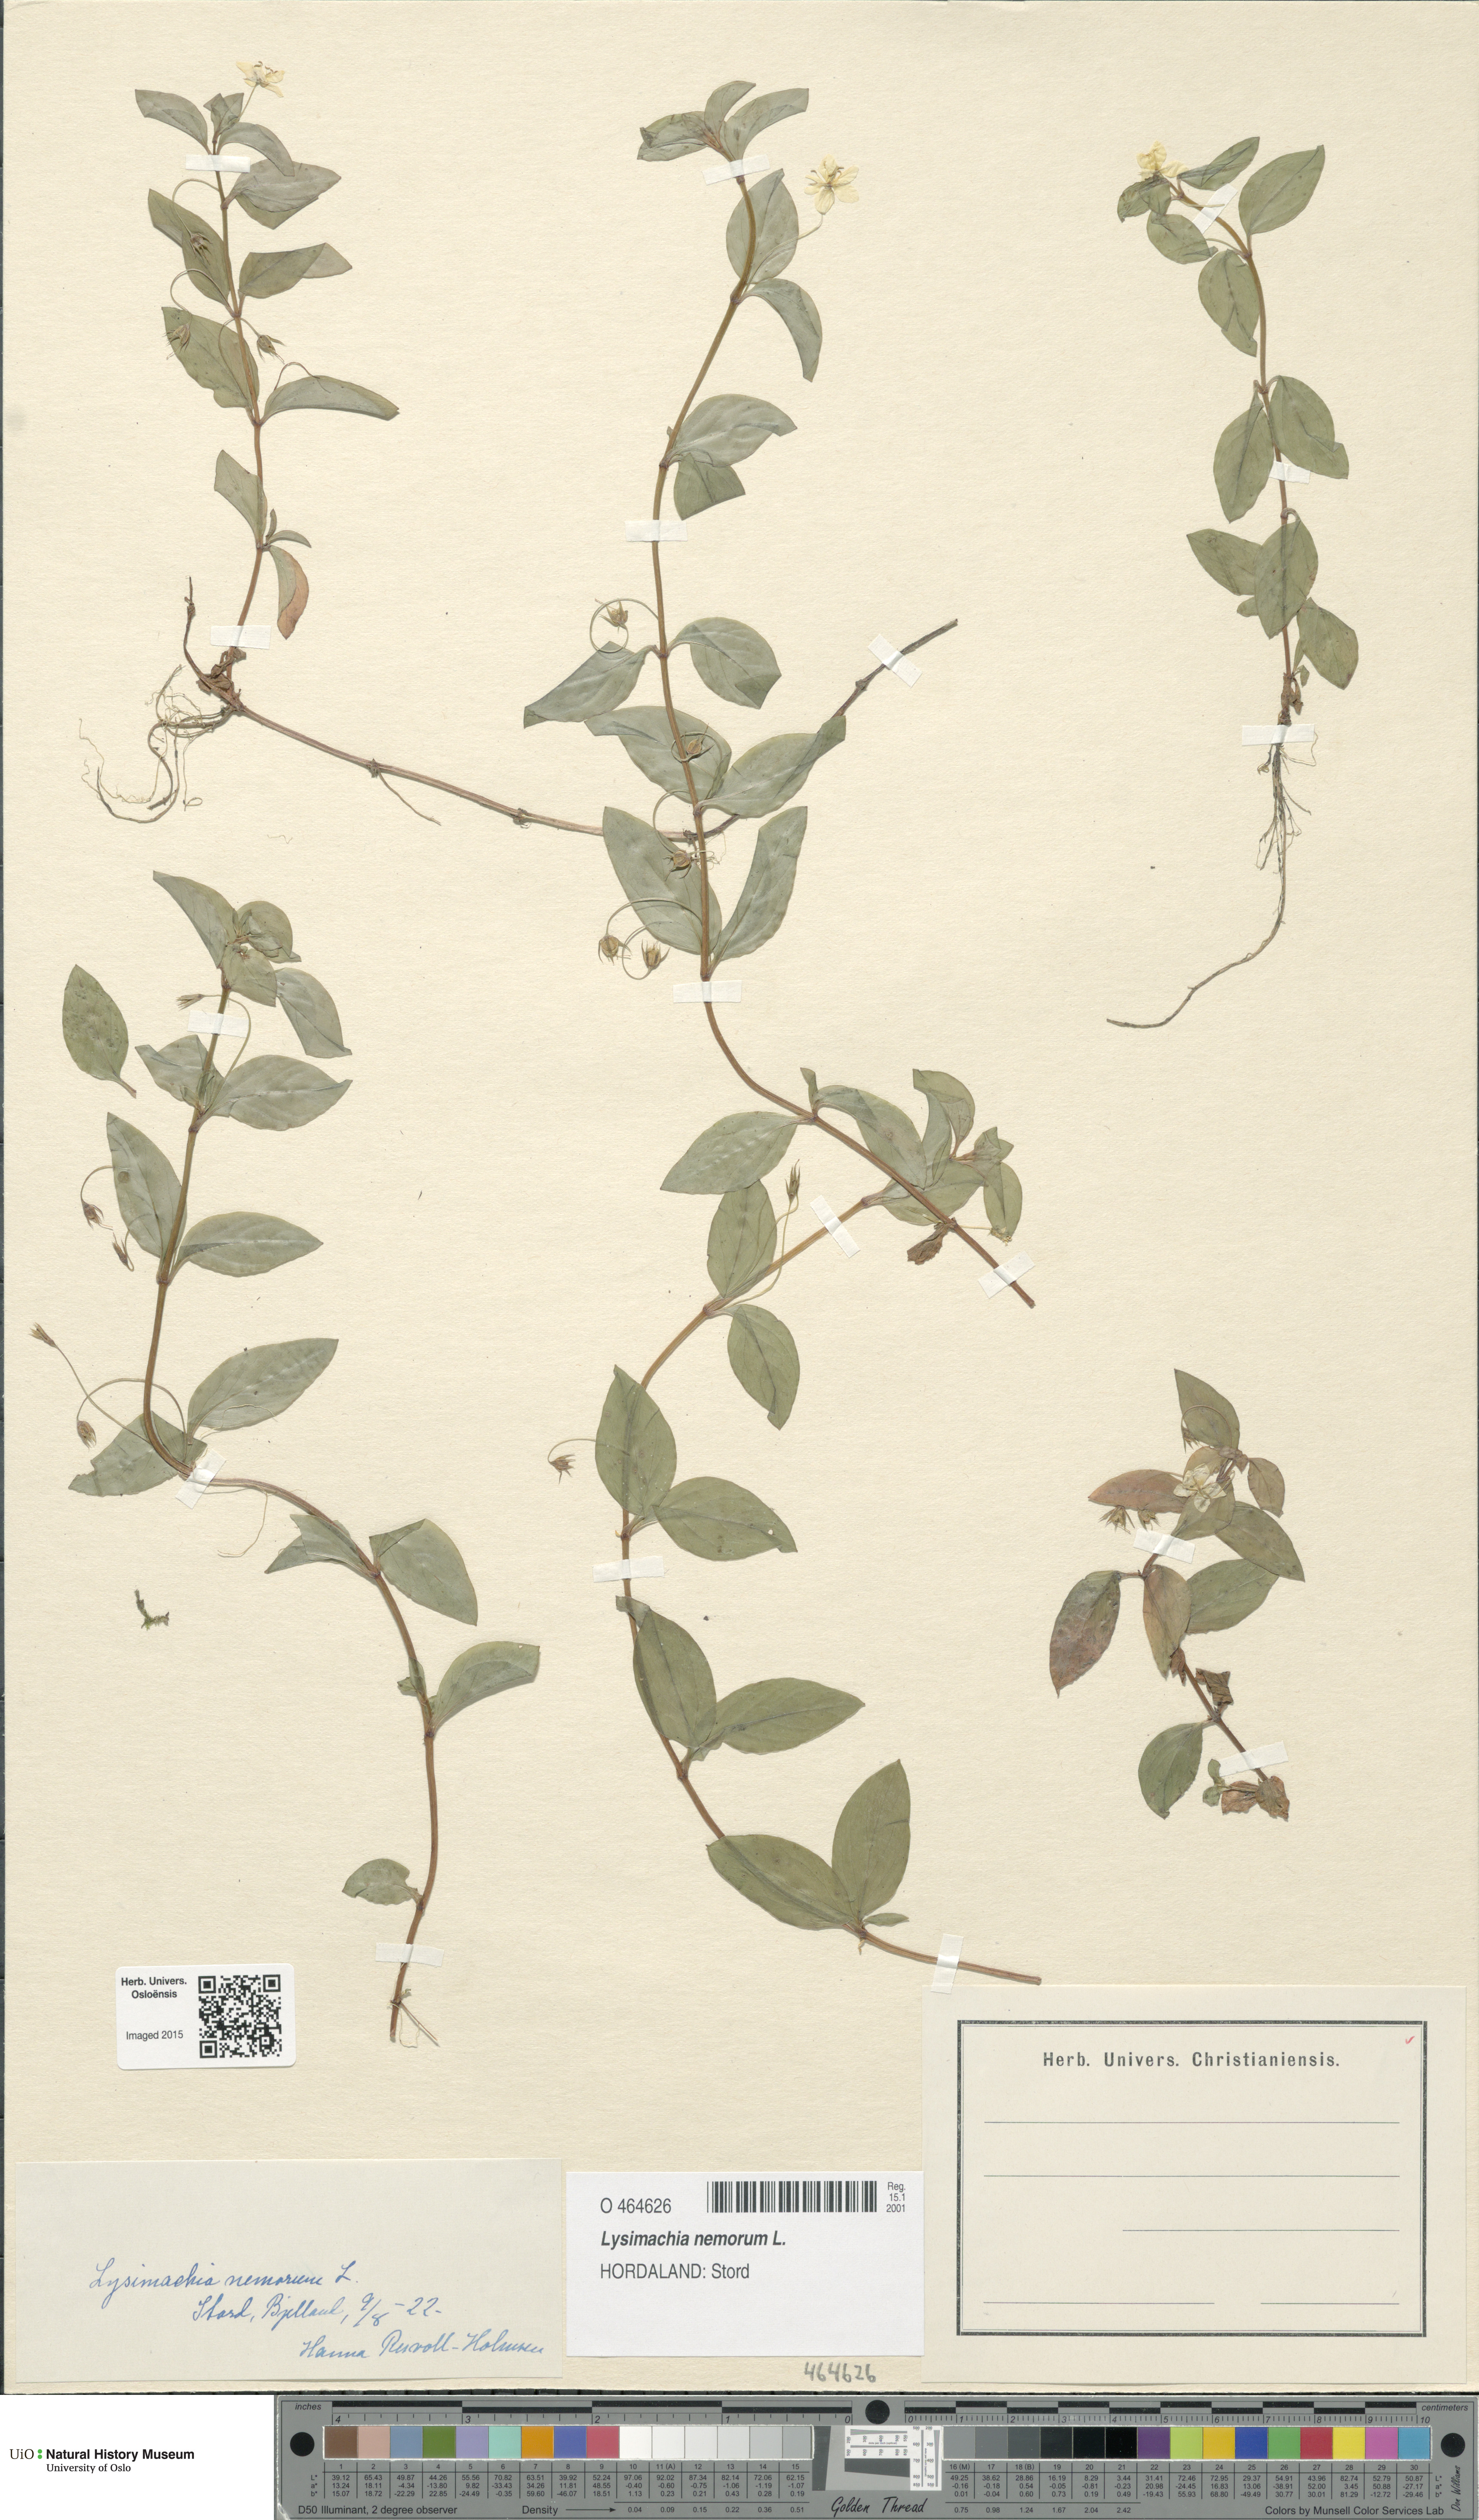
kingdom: Plantae
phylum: Tracheophyta
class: Magnoliopsida
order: Ericales
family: Primulaceae
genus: Lysimachia
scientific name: Lysimachia nemorum
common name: Yellow pimpernel
